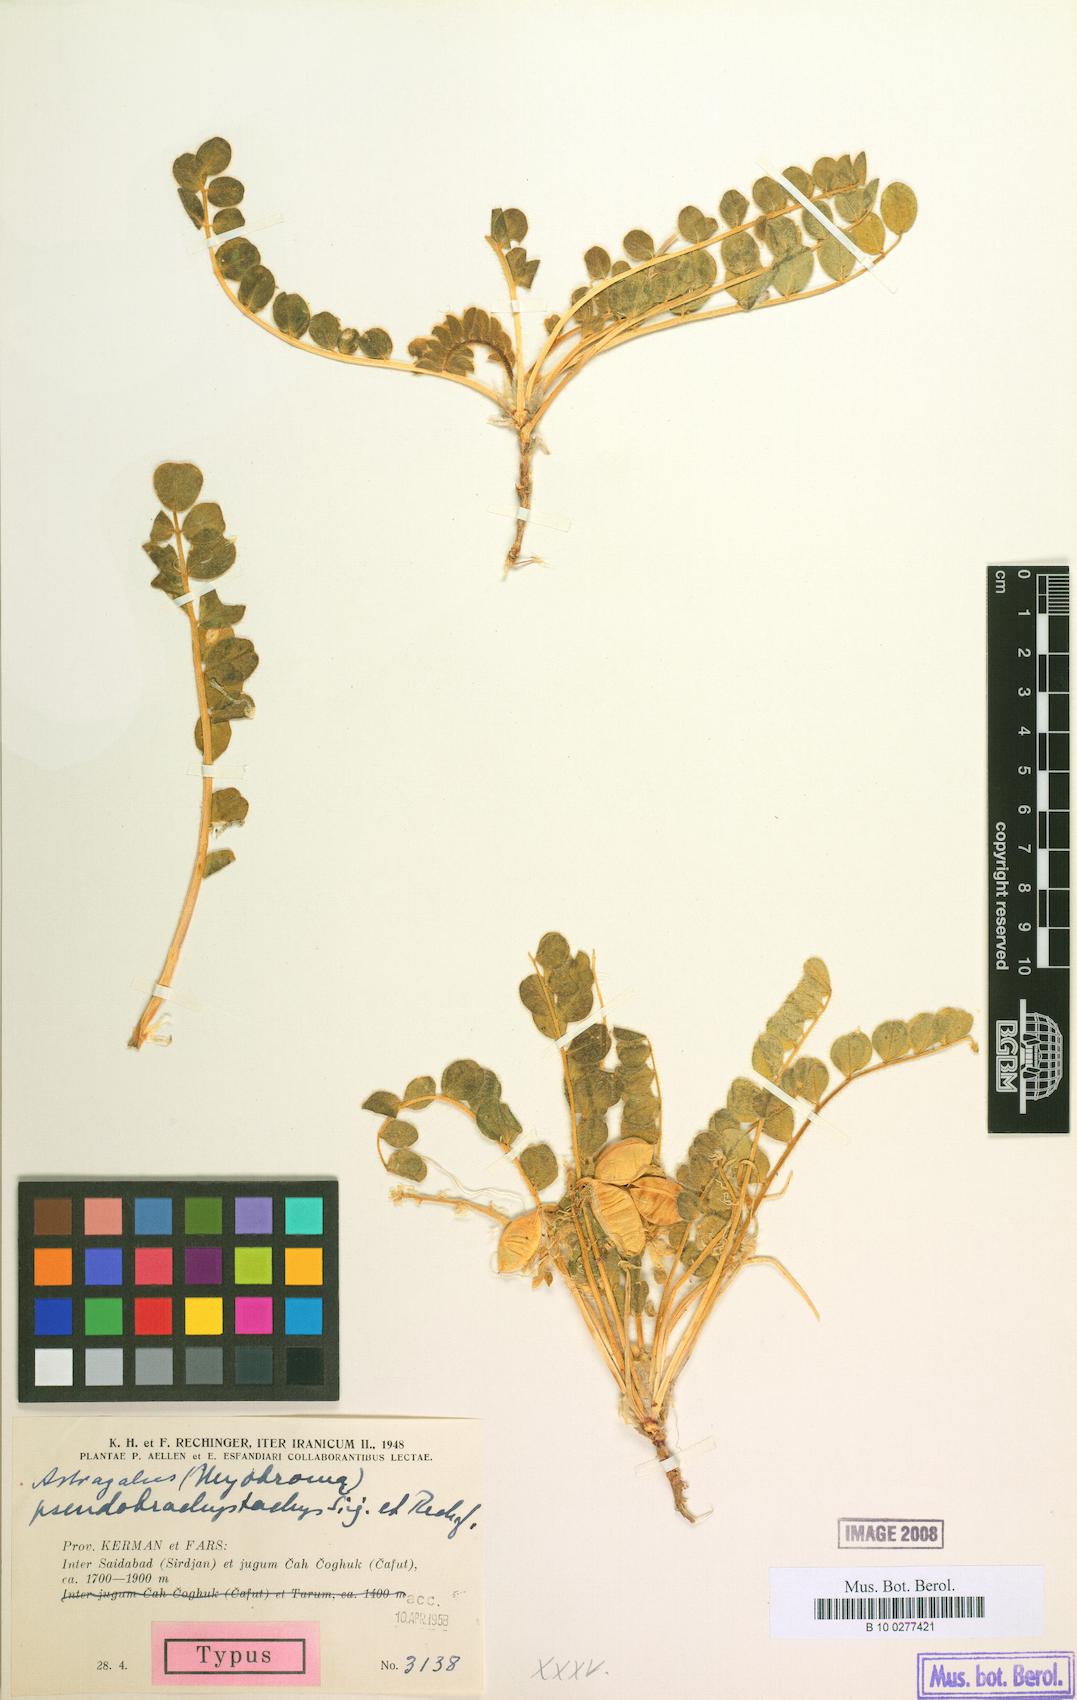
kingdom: Plantae
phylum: Tracheophyta
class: Magnoliopsida
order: Fabales
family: Fabaceae
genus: Astragalus
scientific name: Astragalus pseudobrachystachys
